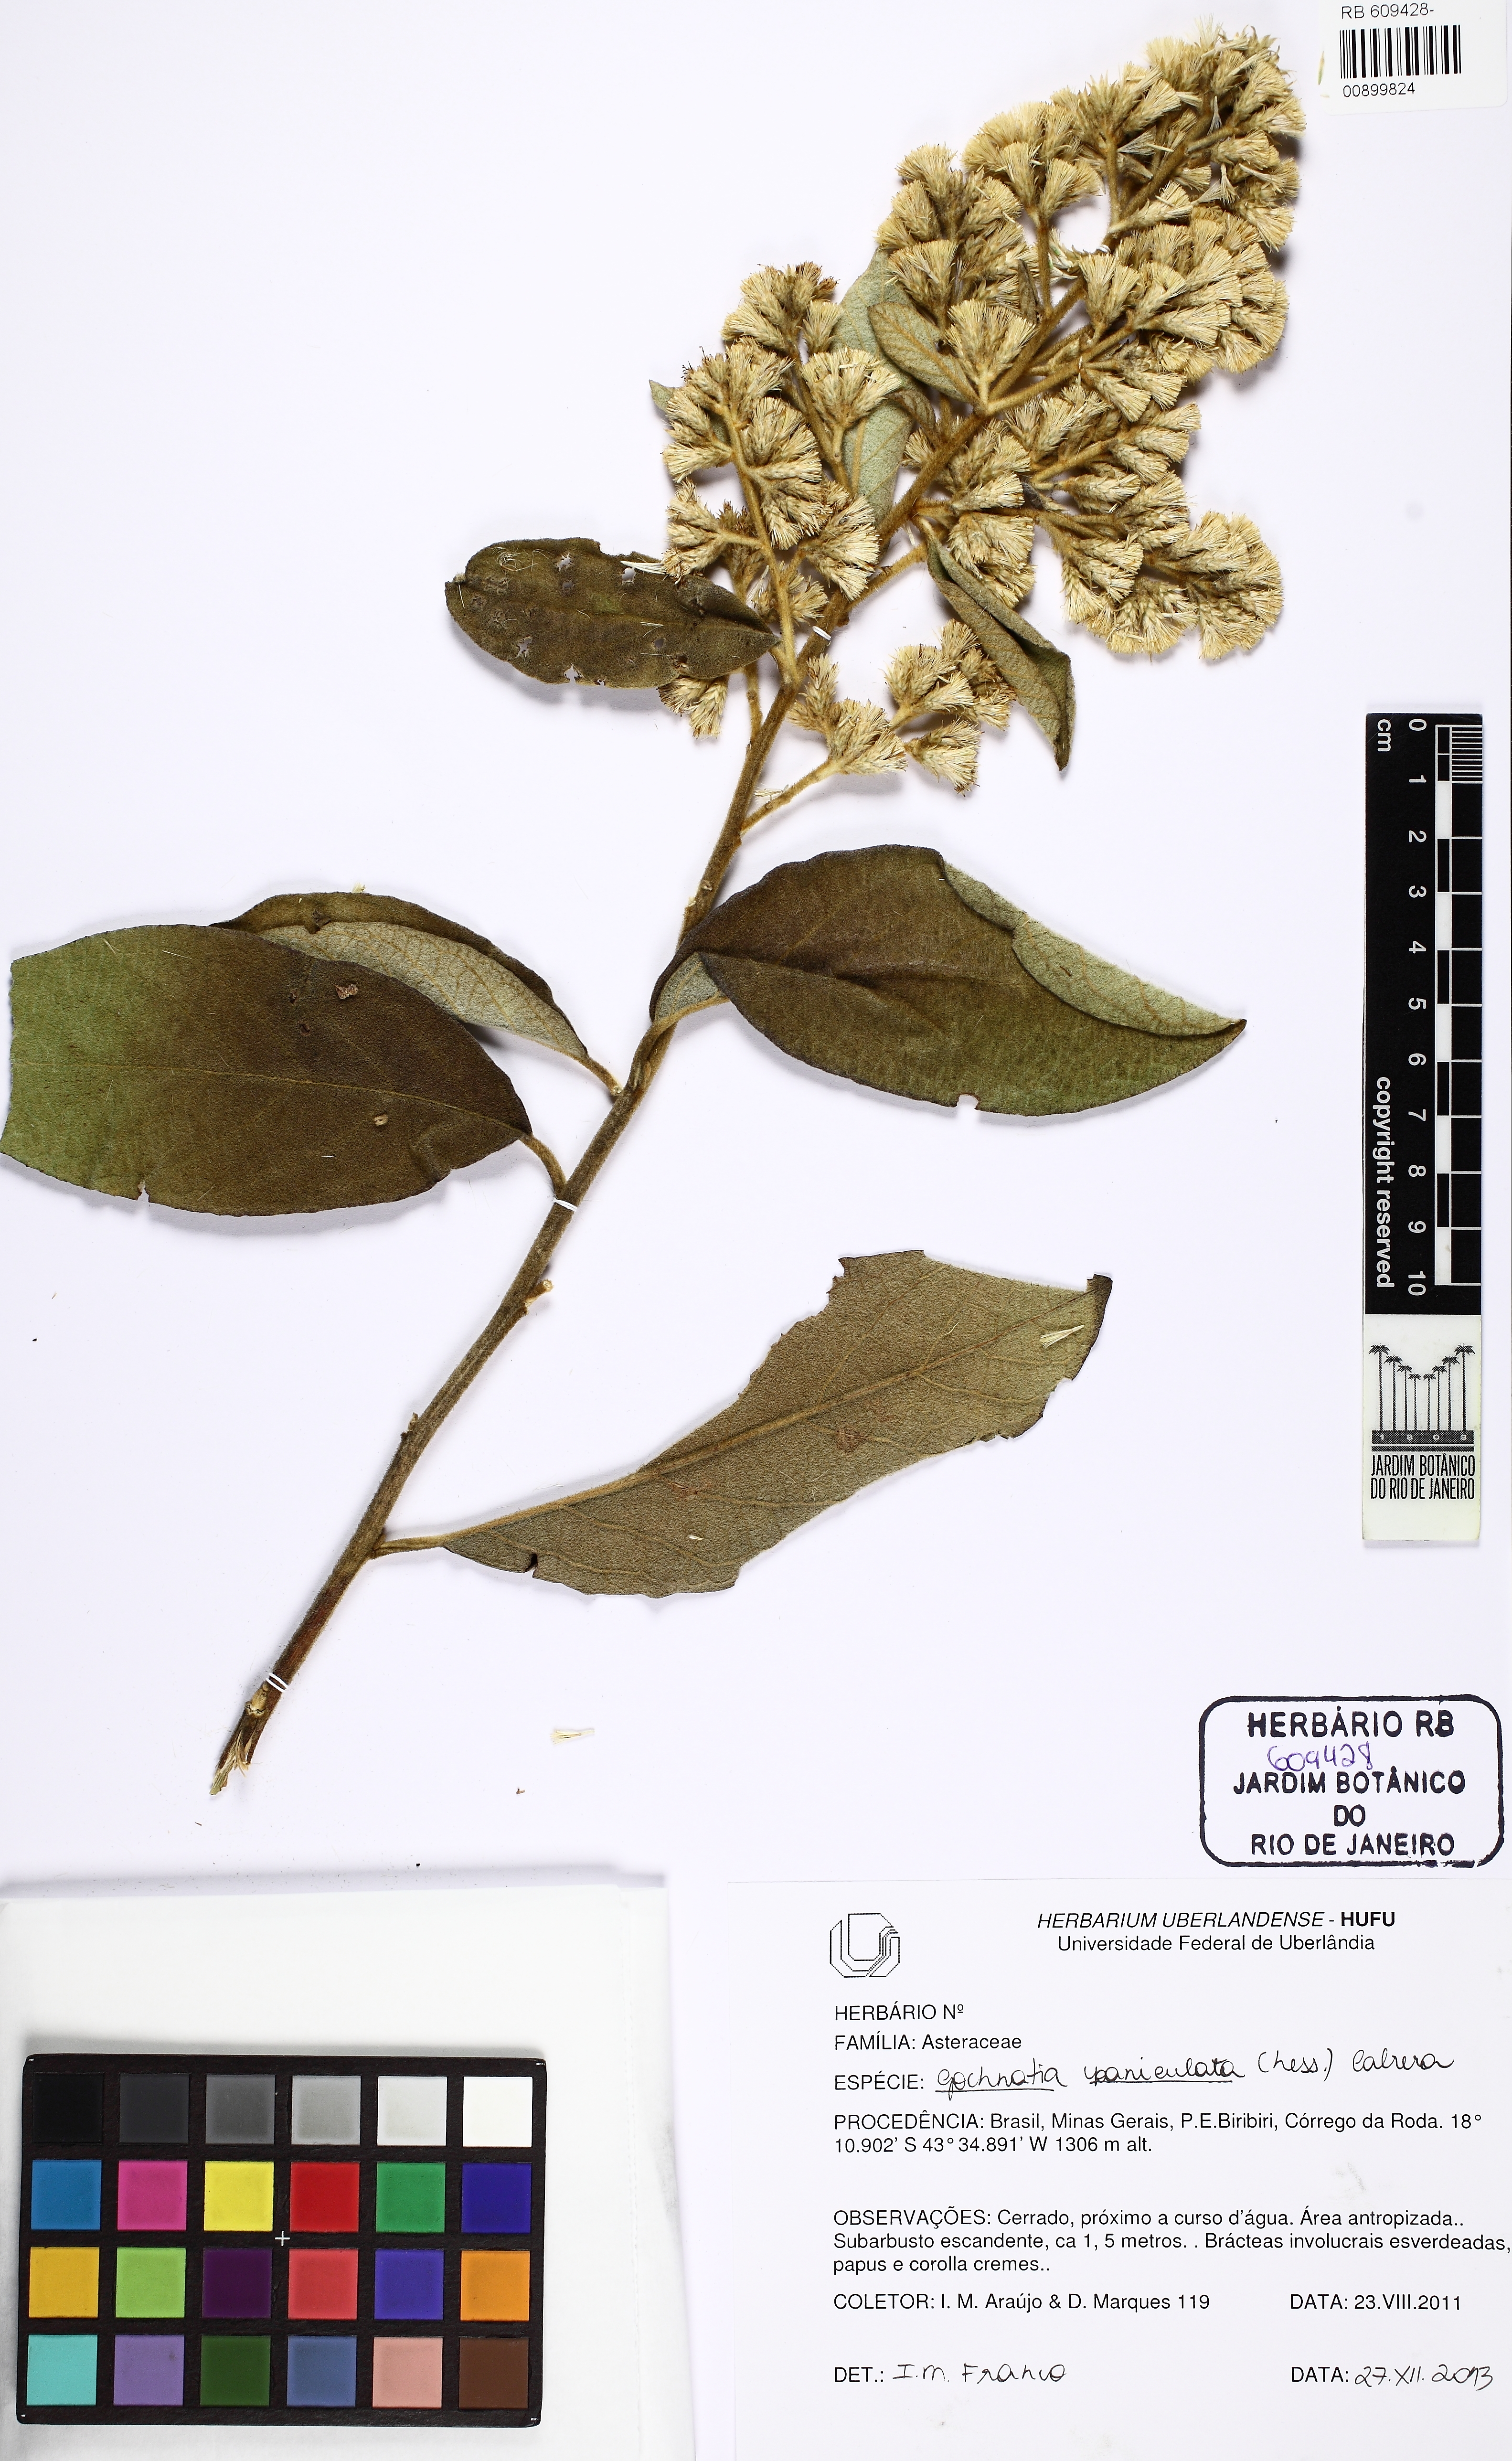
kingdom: Plantae
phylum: Tracheophyta
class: Magnoliopsida
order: Asterales
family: Asteraceae
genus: Moquiniastrum
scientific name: Moquiniastrum paniculatum
